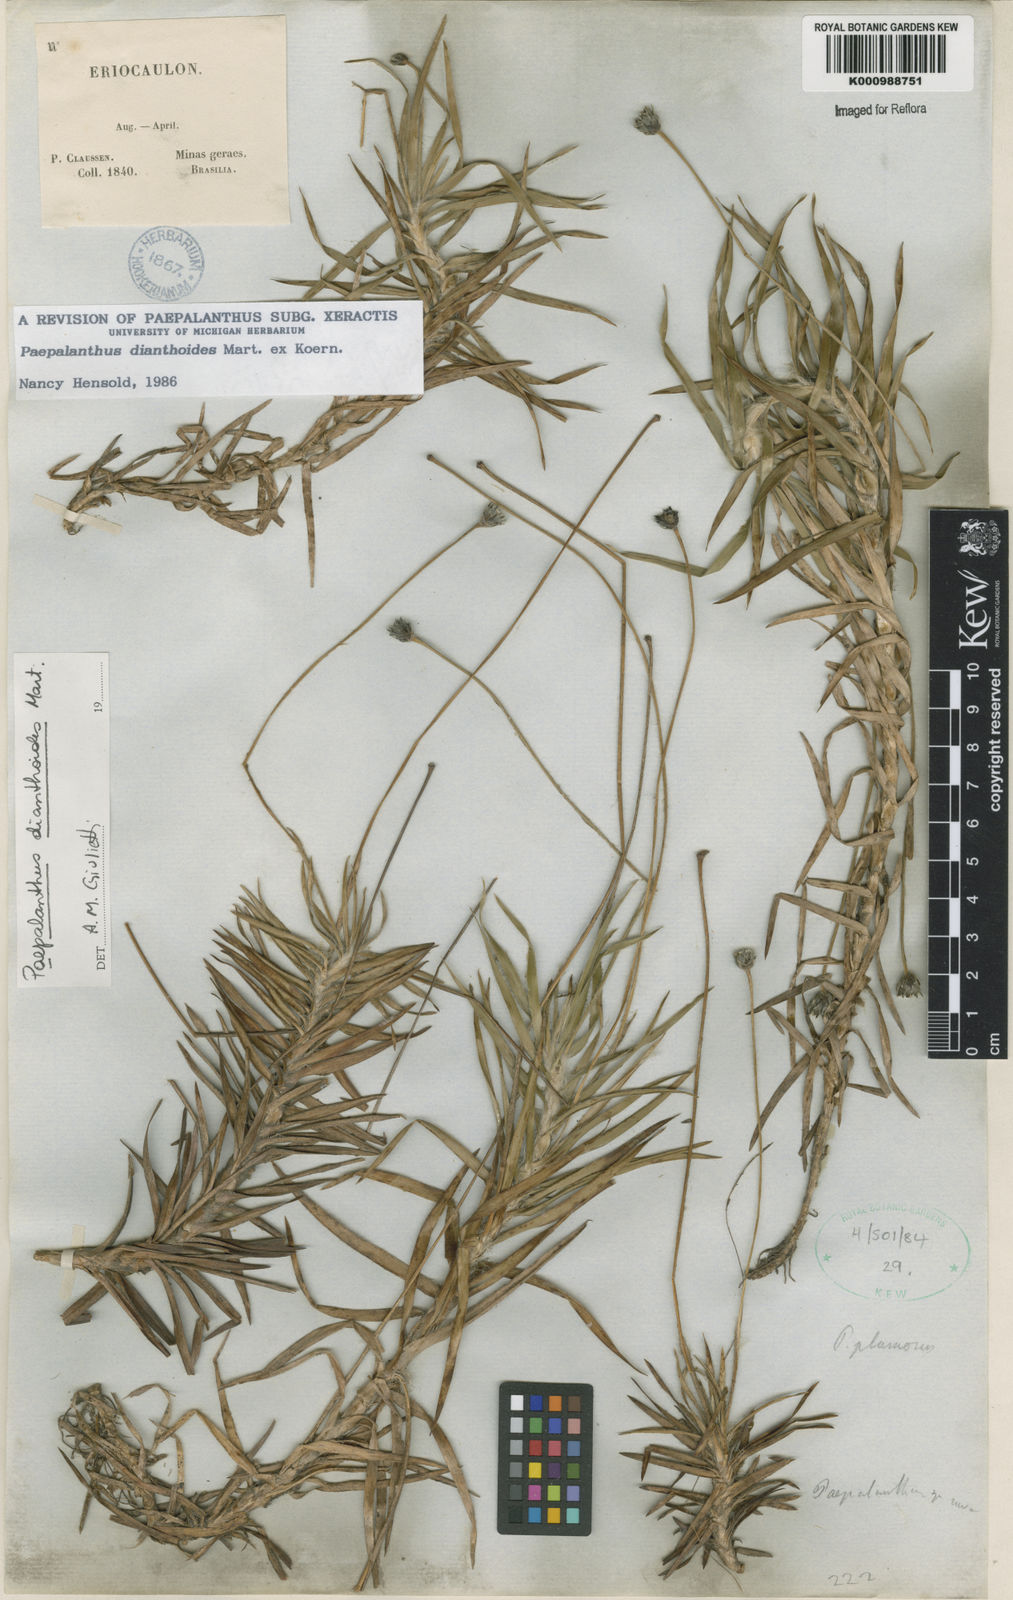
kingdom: Plantae
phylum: Tracheophyta
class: Liliopsida
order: Poales
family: Eriocaulaceae
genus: Paepalanthus
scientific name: Paepalanthus
